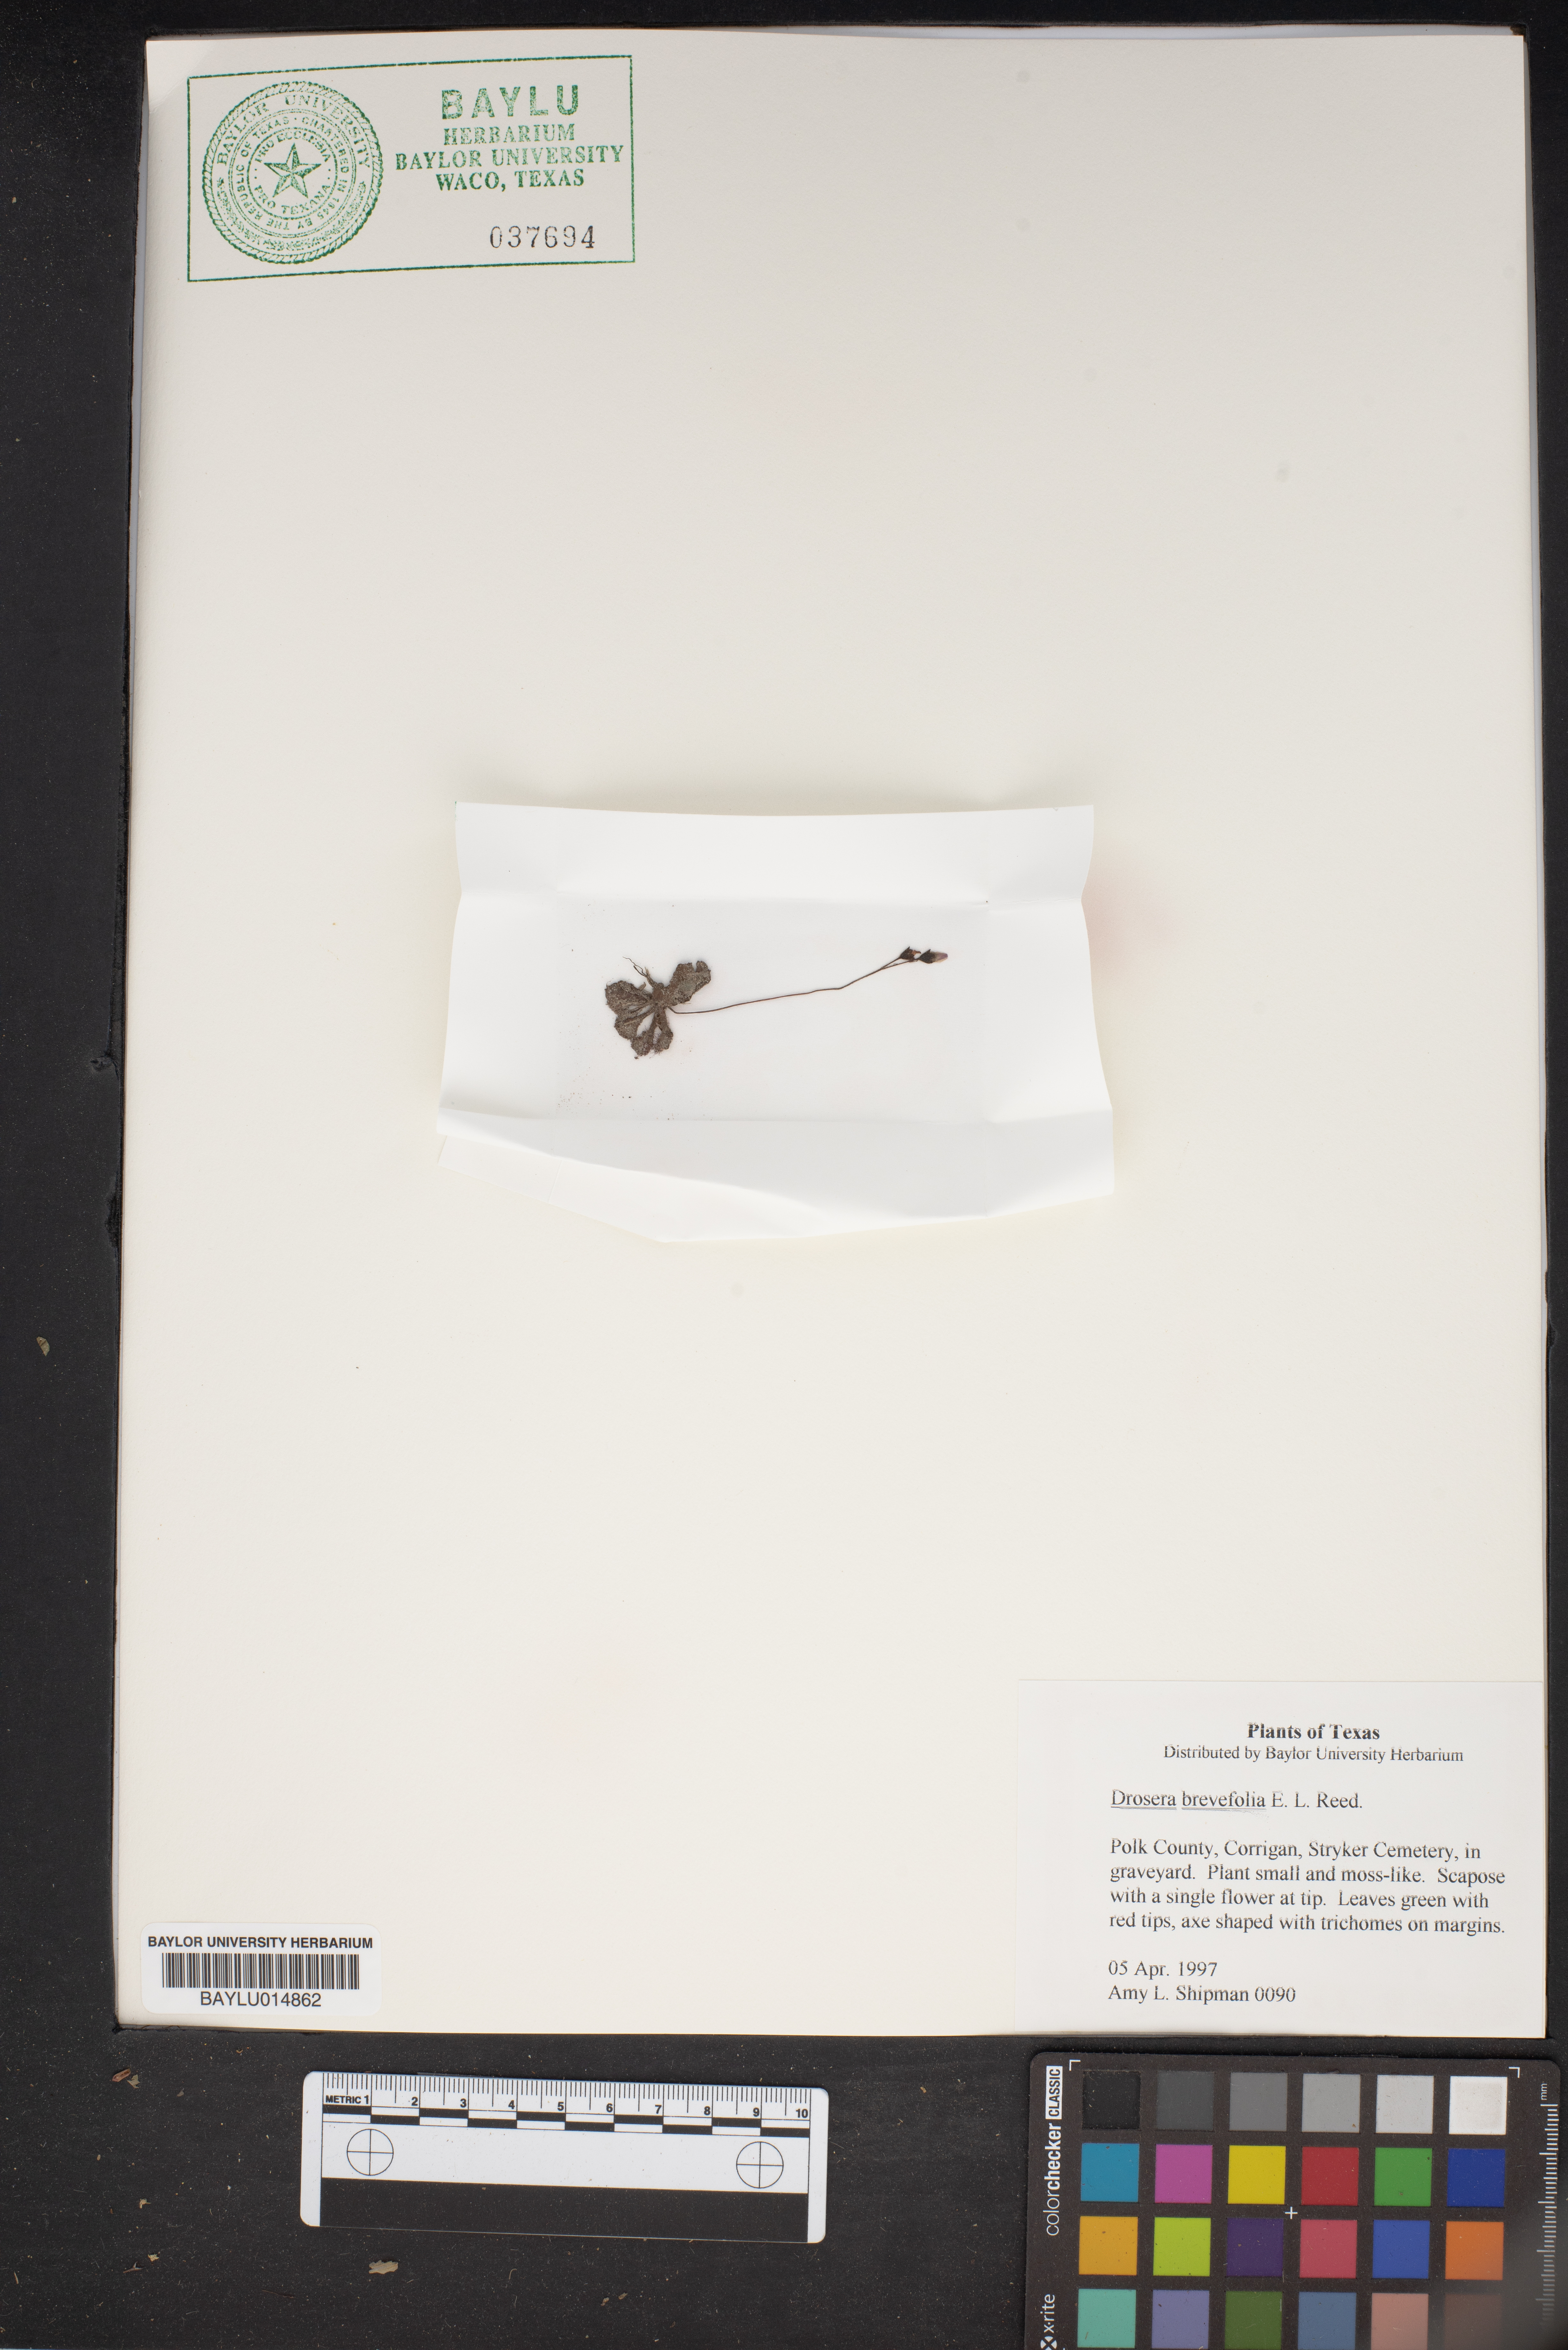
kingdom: Plantae
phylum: Tracheophyta
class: Magnoliopsida
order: Caryophyllales
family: Droseraceae
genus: Drosera
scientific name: Drosera brevifolia
